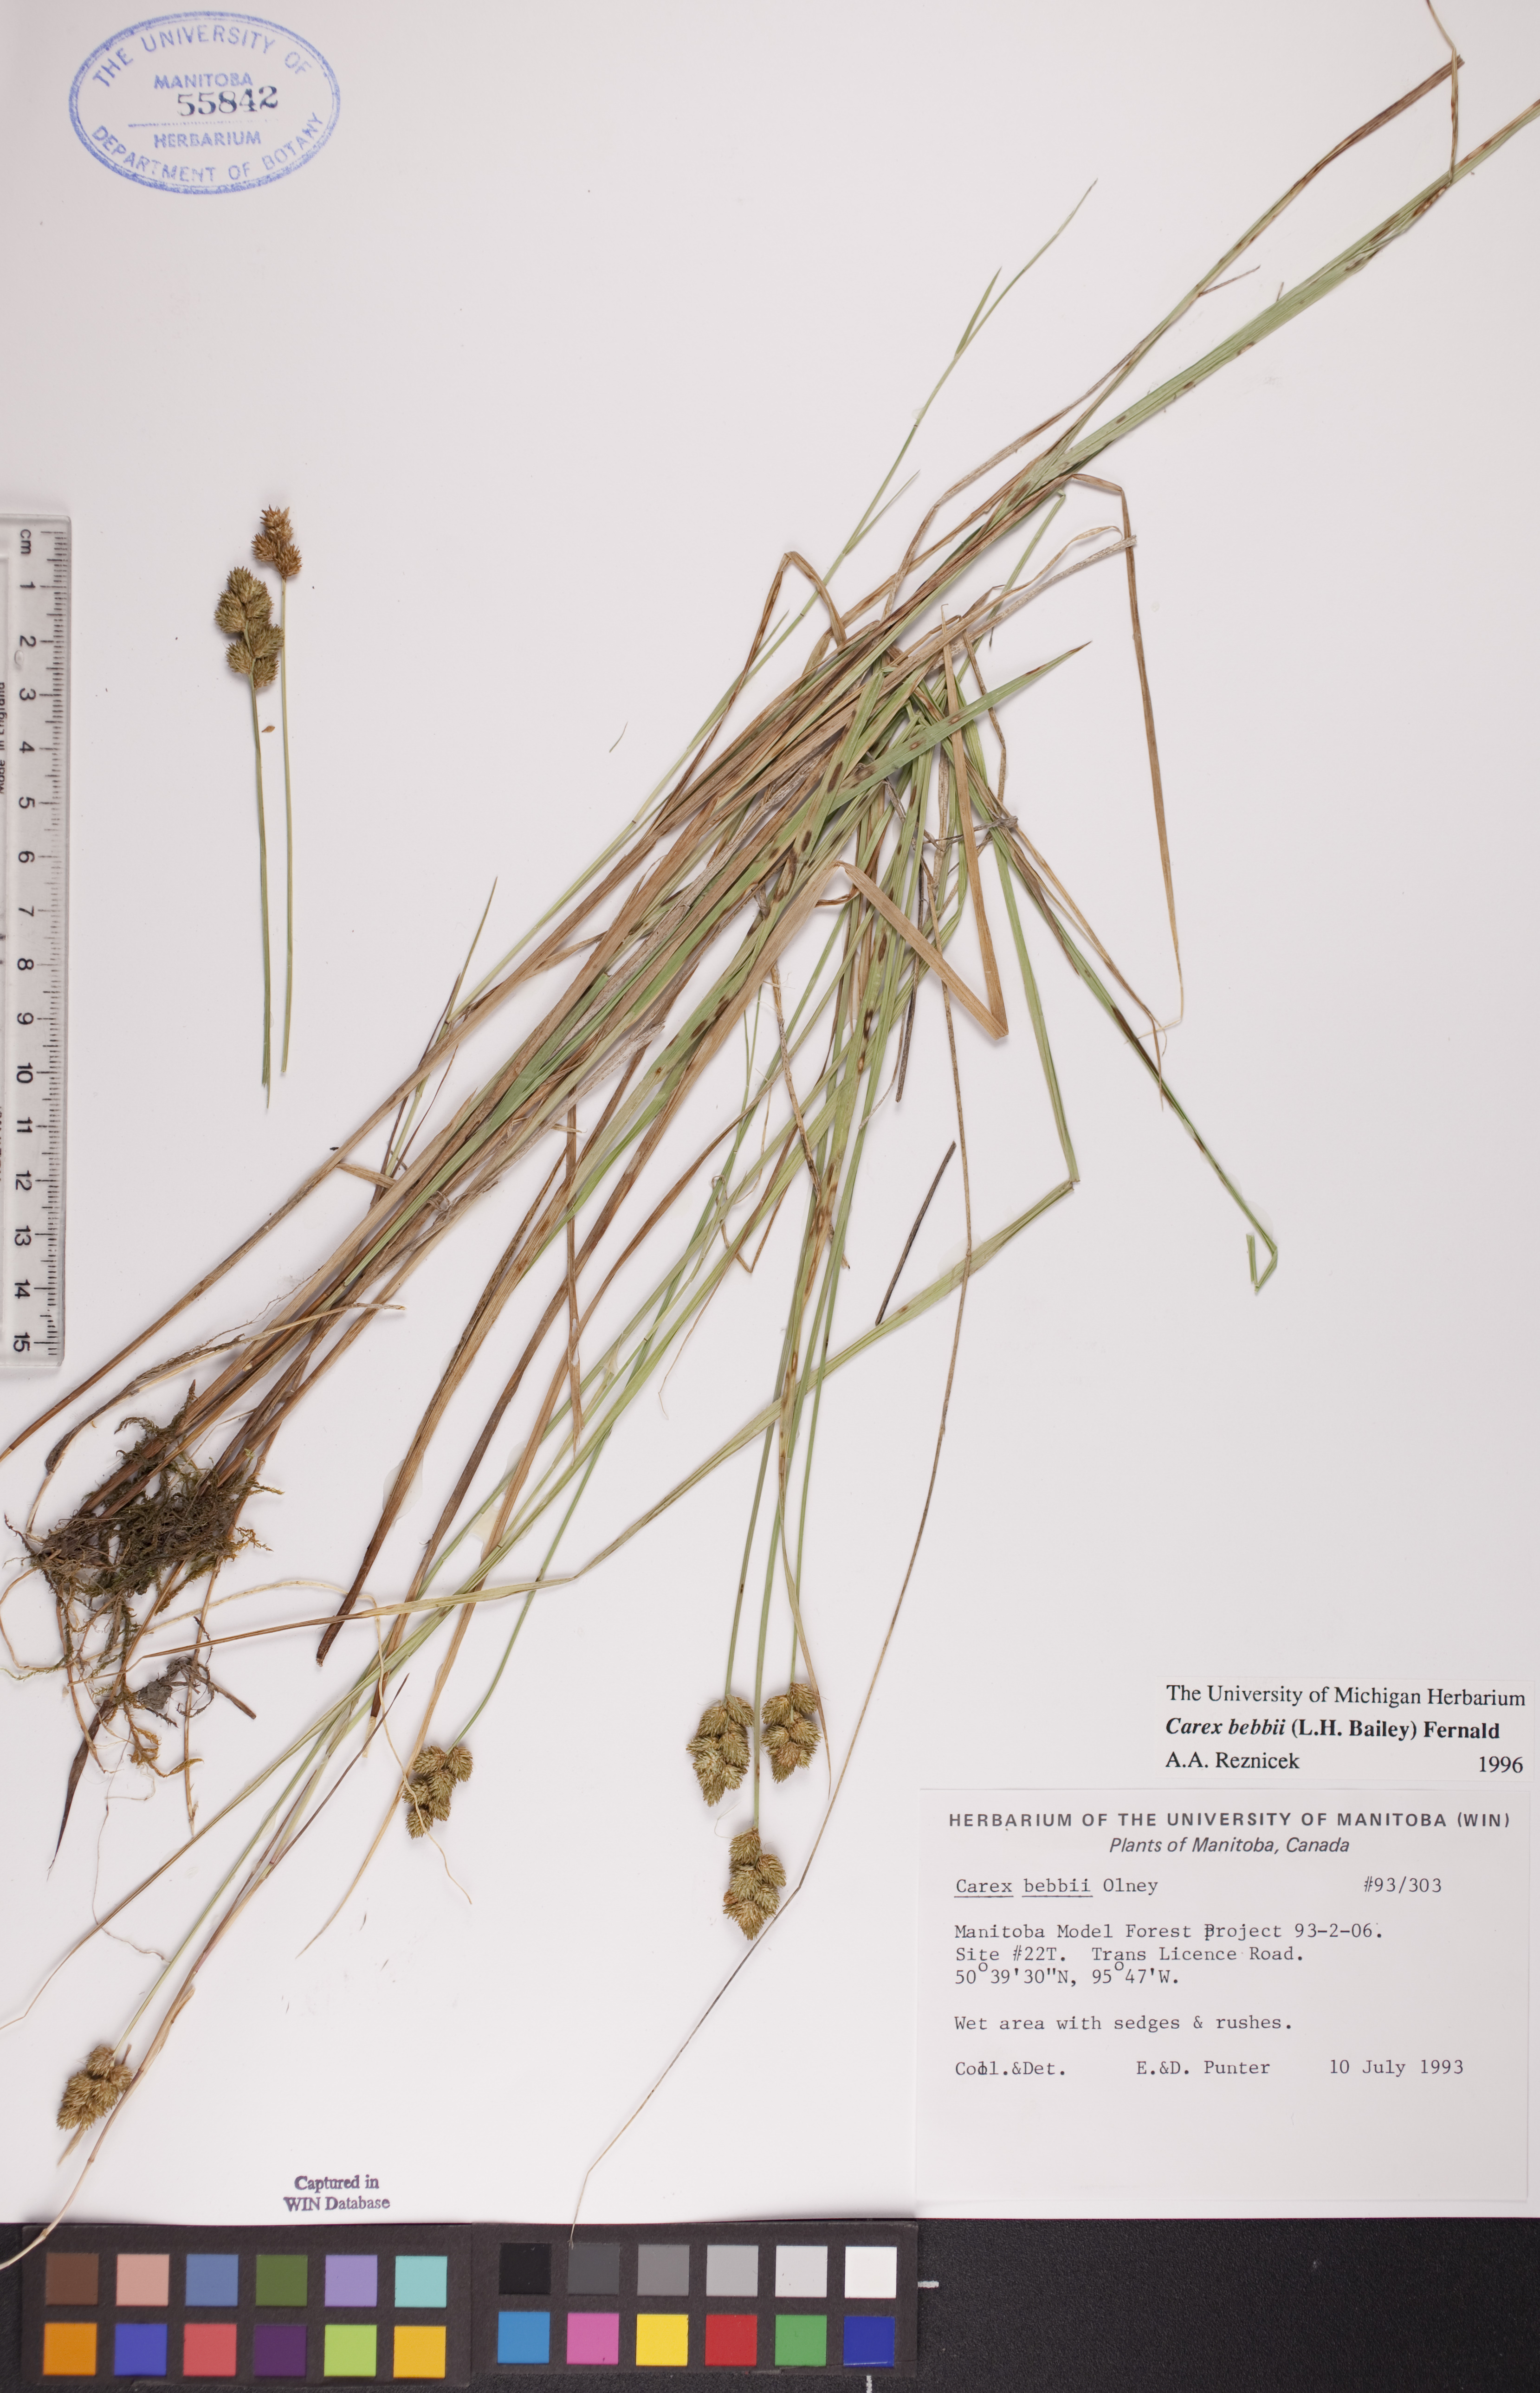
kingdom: Plantae
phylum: Tracheophyta
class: Liliopsida
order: Poales
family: Cyperaceae
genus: Carex
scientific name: Carex bebbii
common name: Bebb's sedge
